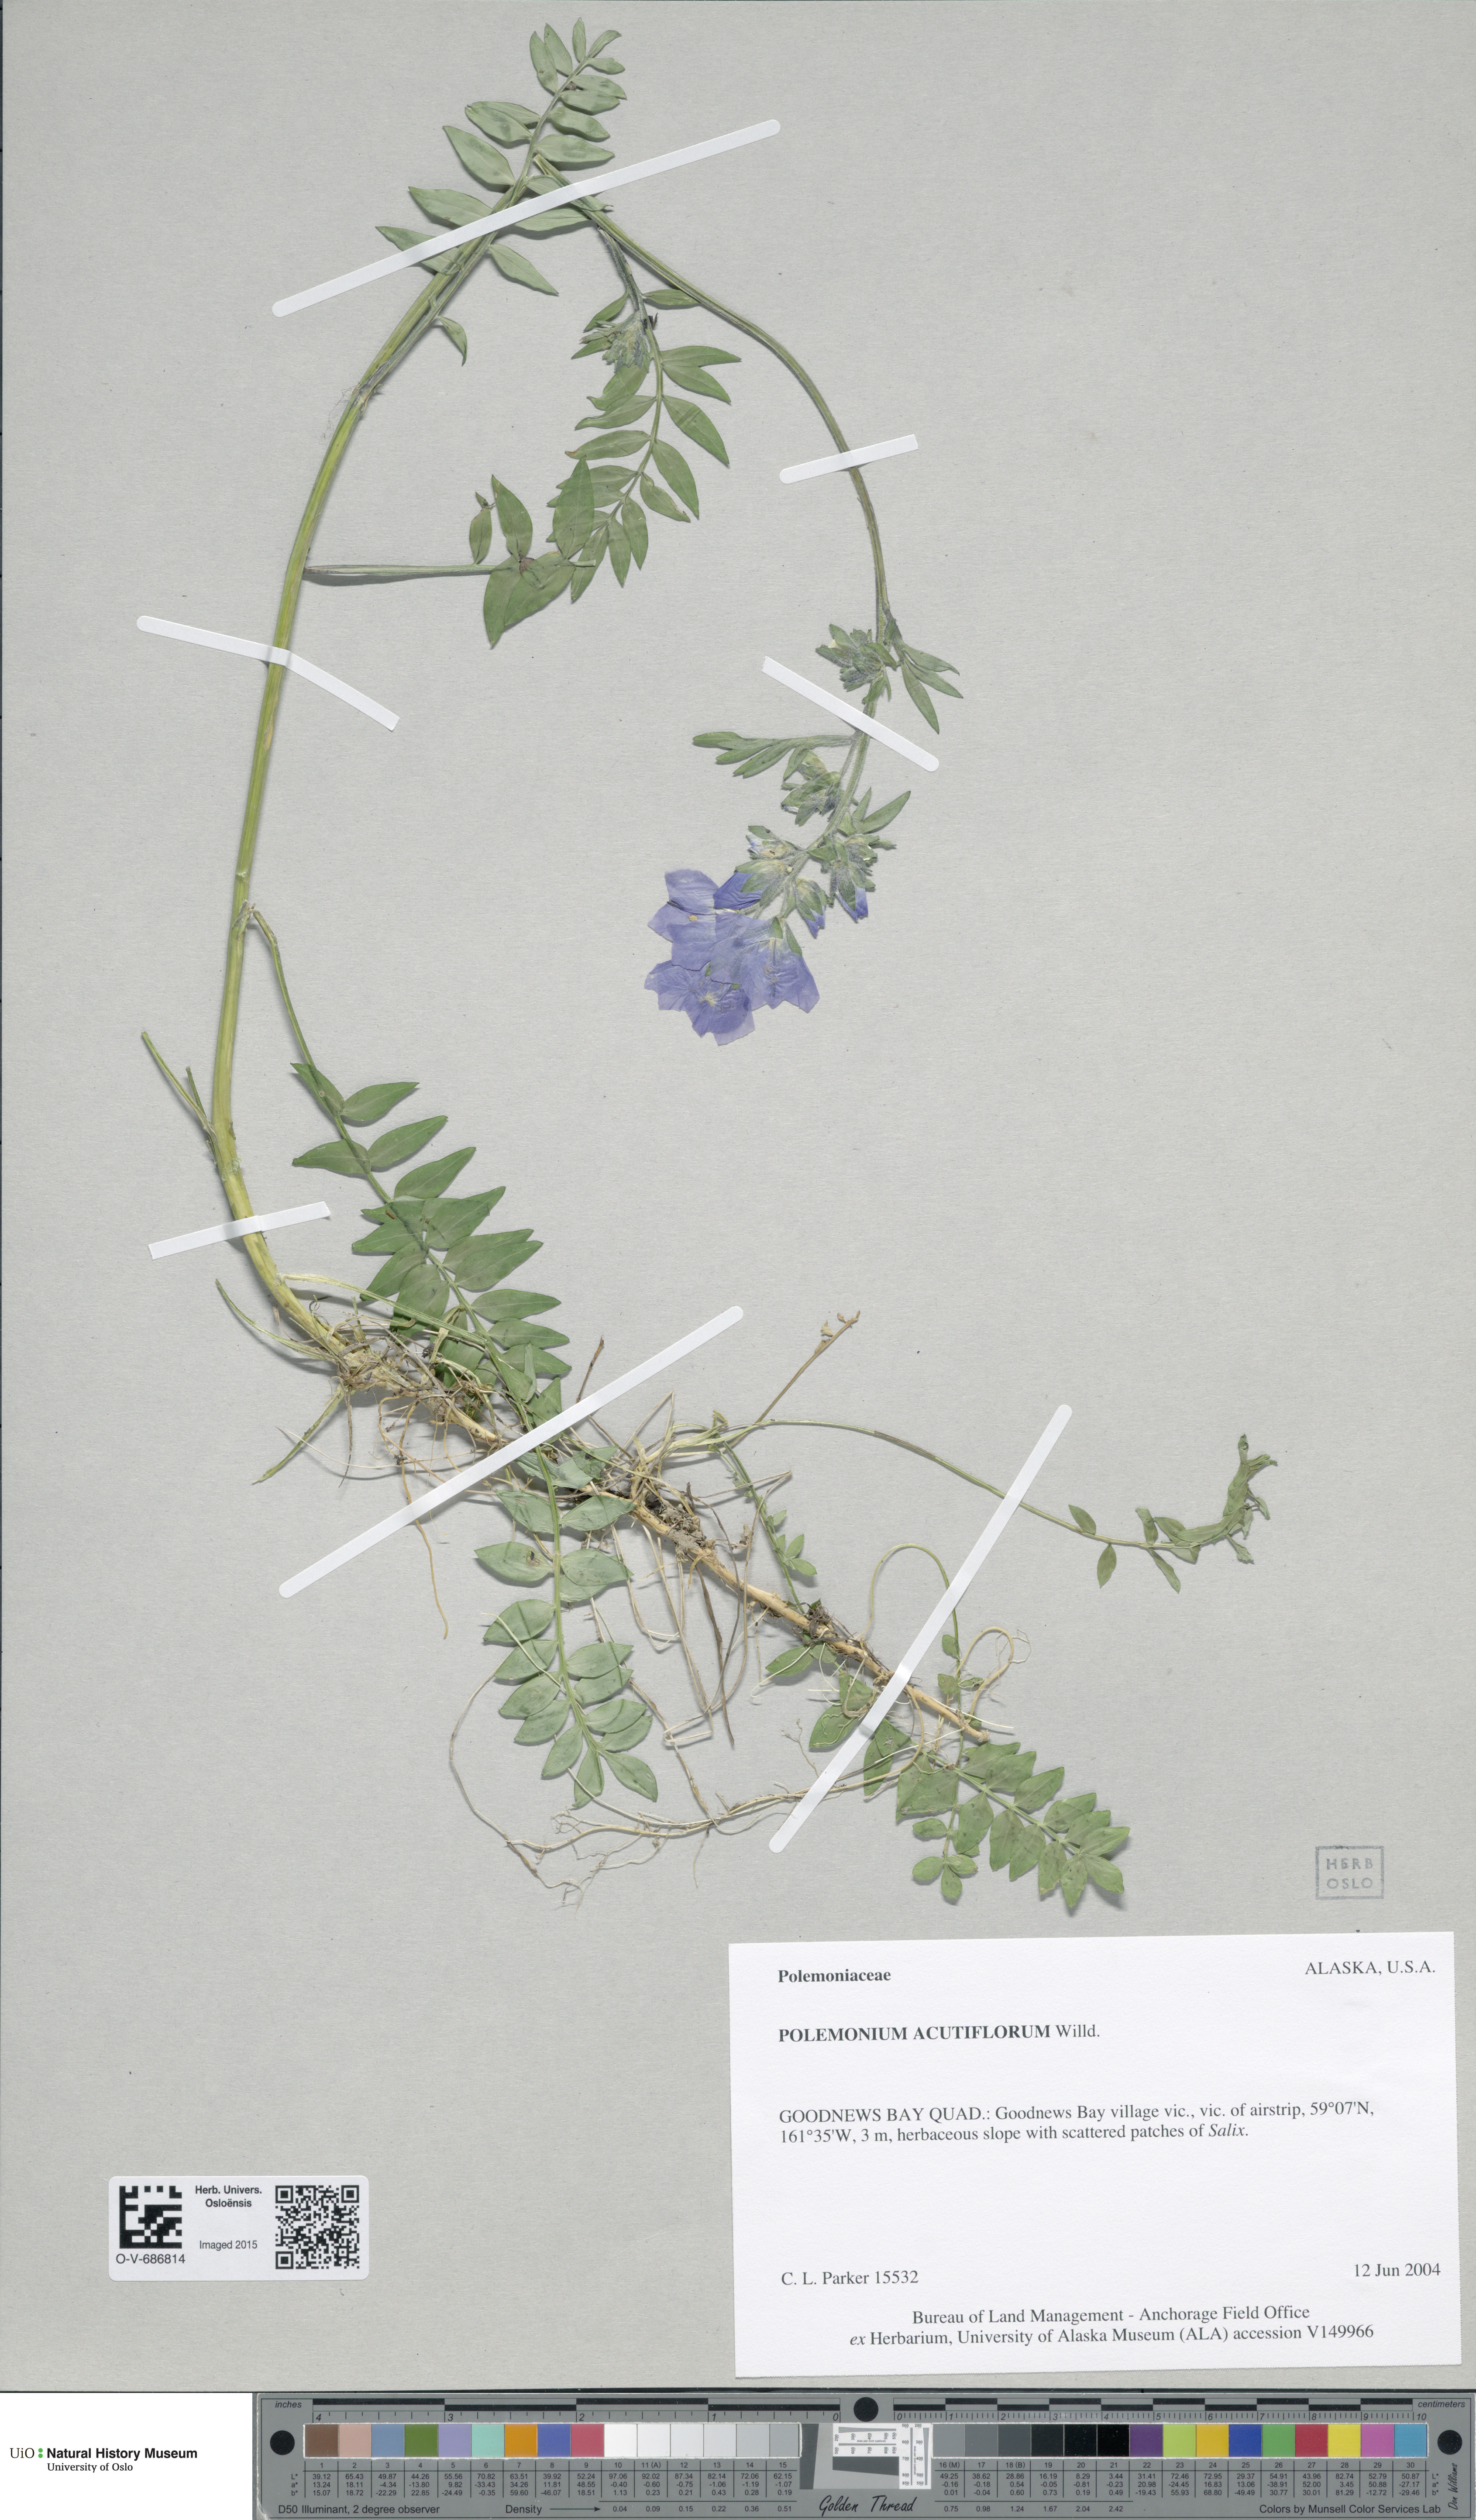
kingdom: Plantae
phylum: Tracheophyta
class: Magnoliopsida
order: Ericales
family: Polemoniaceae
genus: Polemonium
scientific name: Polemonium villosum
